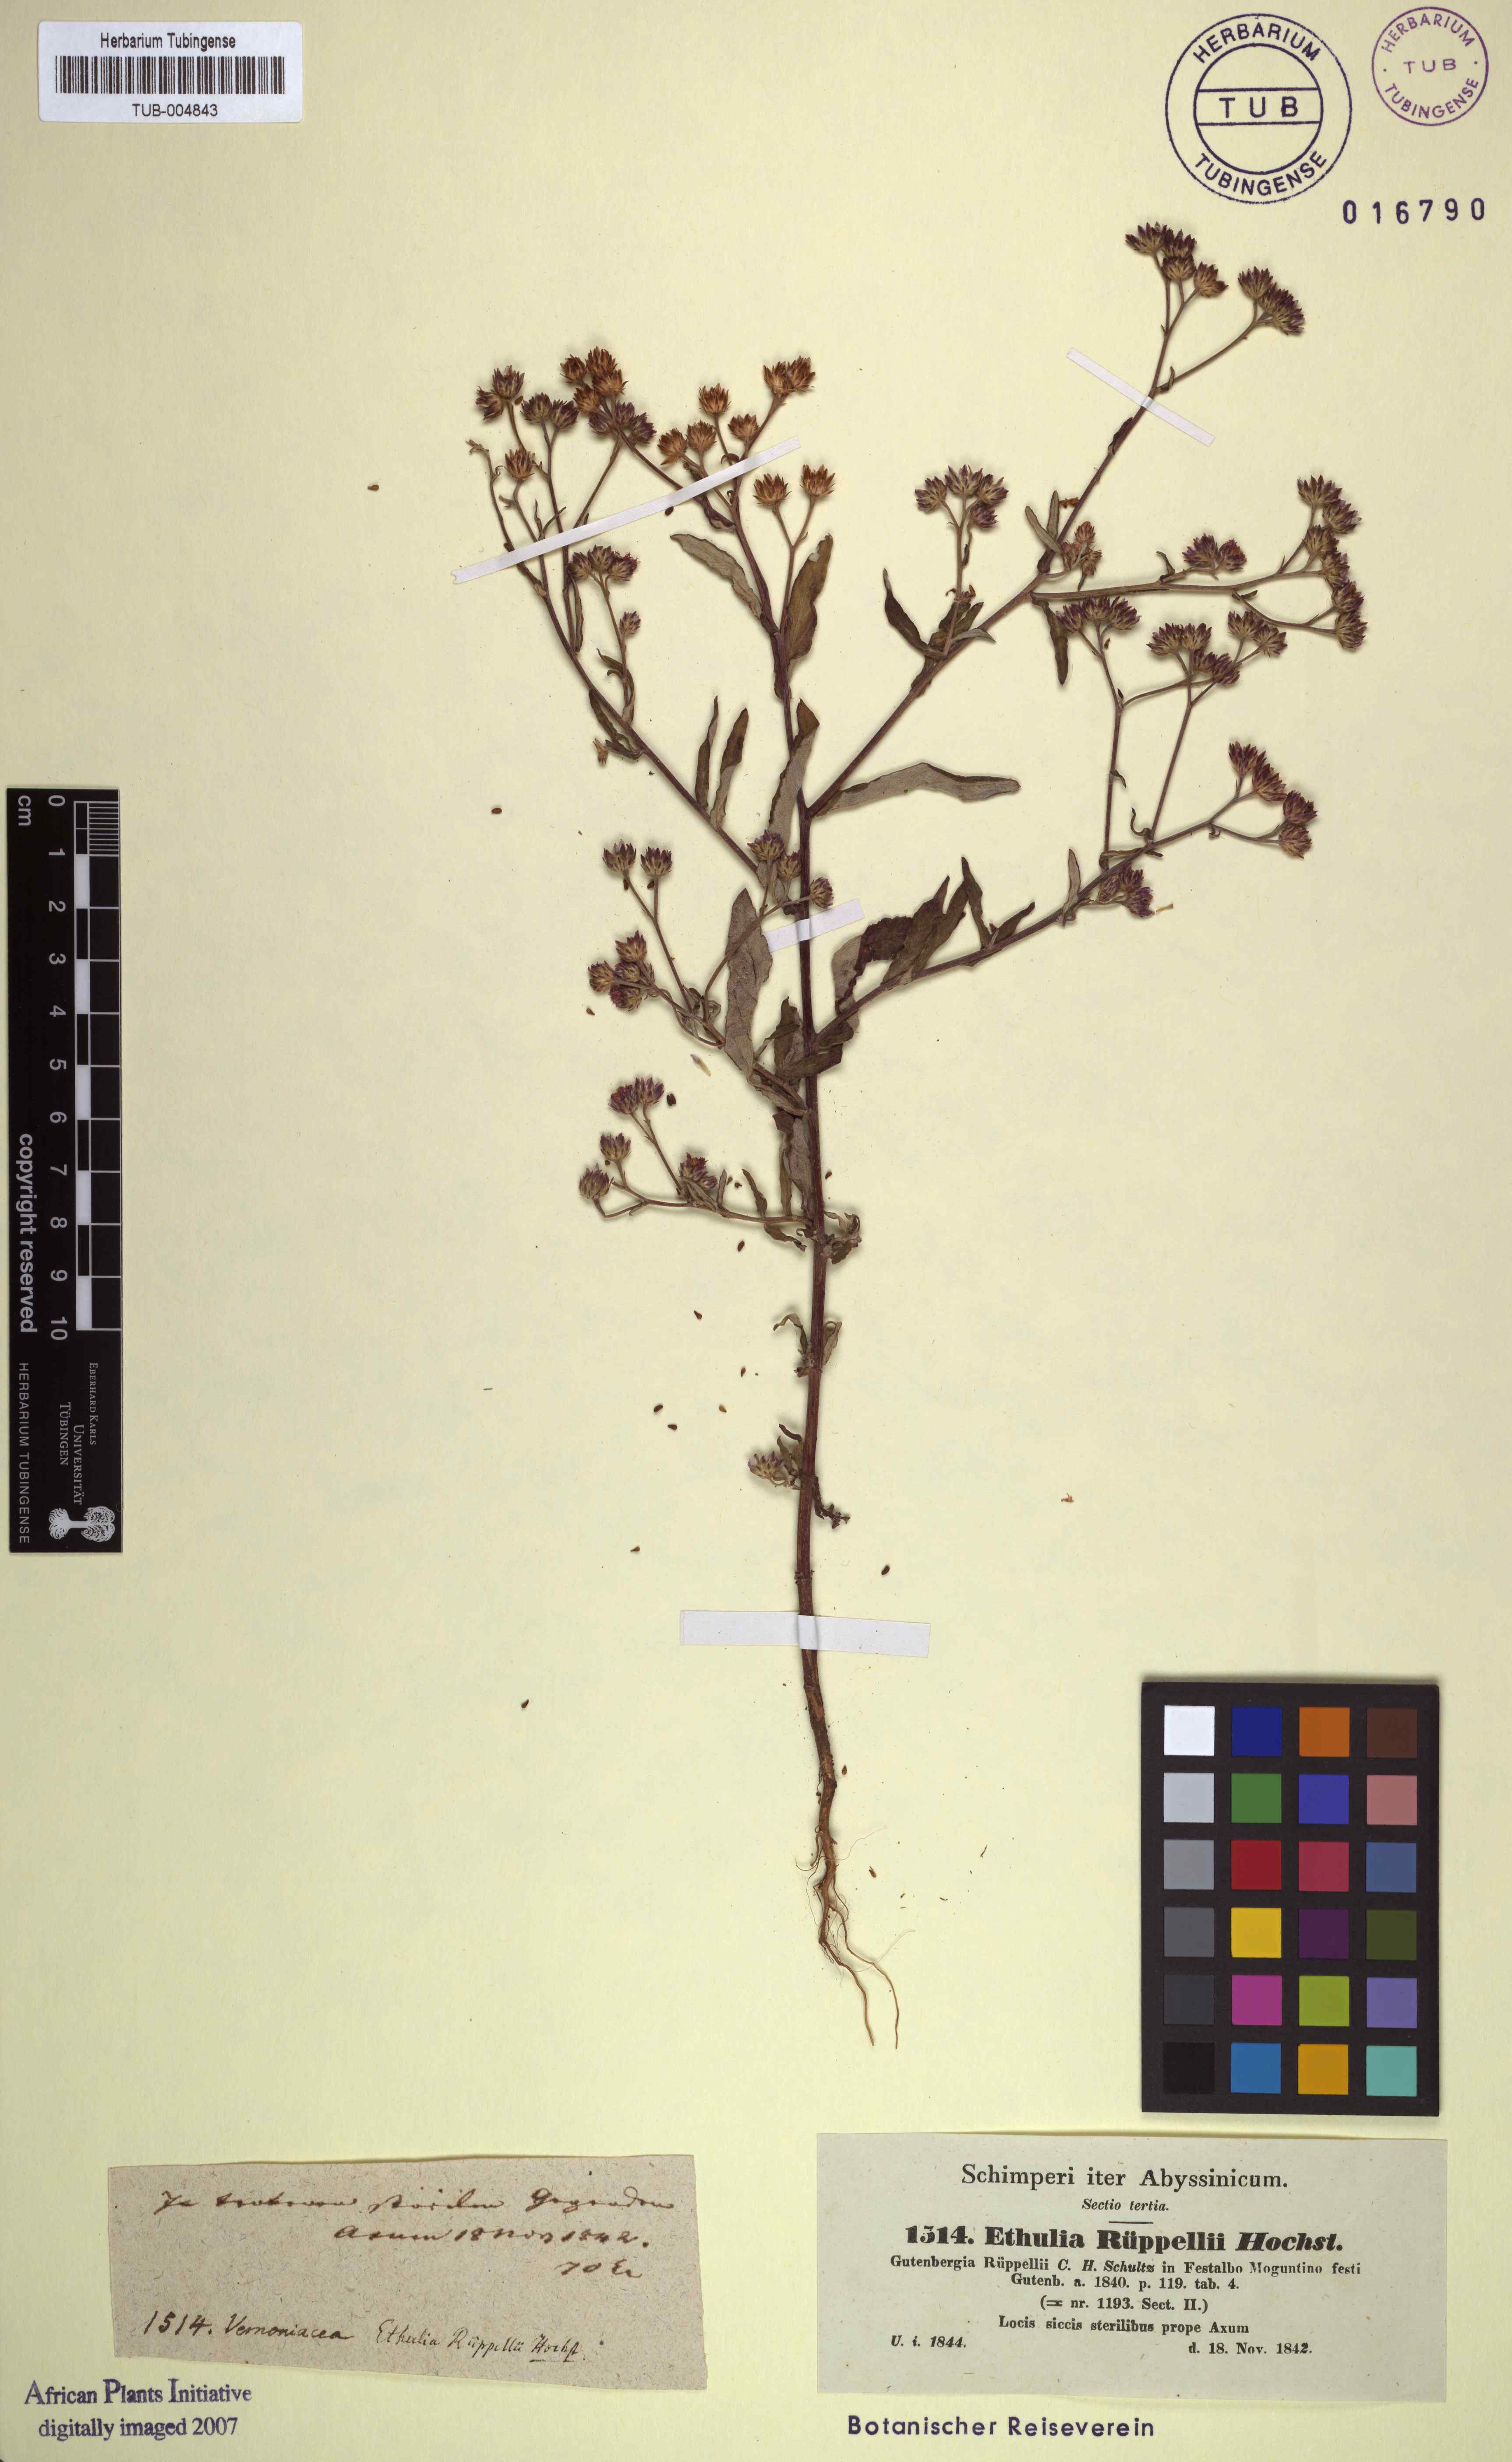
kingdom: Plantae
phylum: Tracheophyta
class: Magnoliopsida
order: Asterales
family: Asteraceae
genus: Gutenbergia
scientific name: Gutenbergia rueppellii
